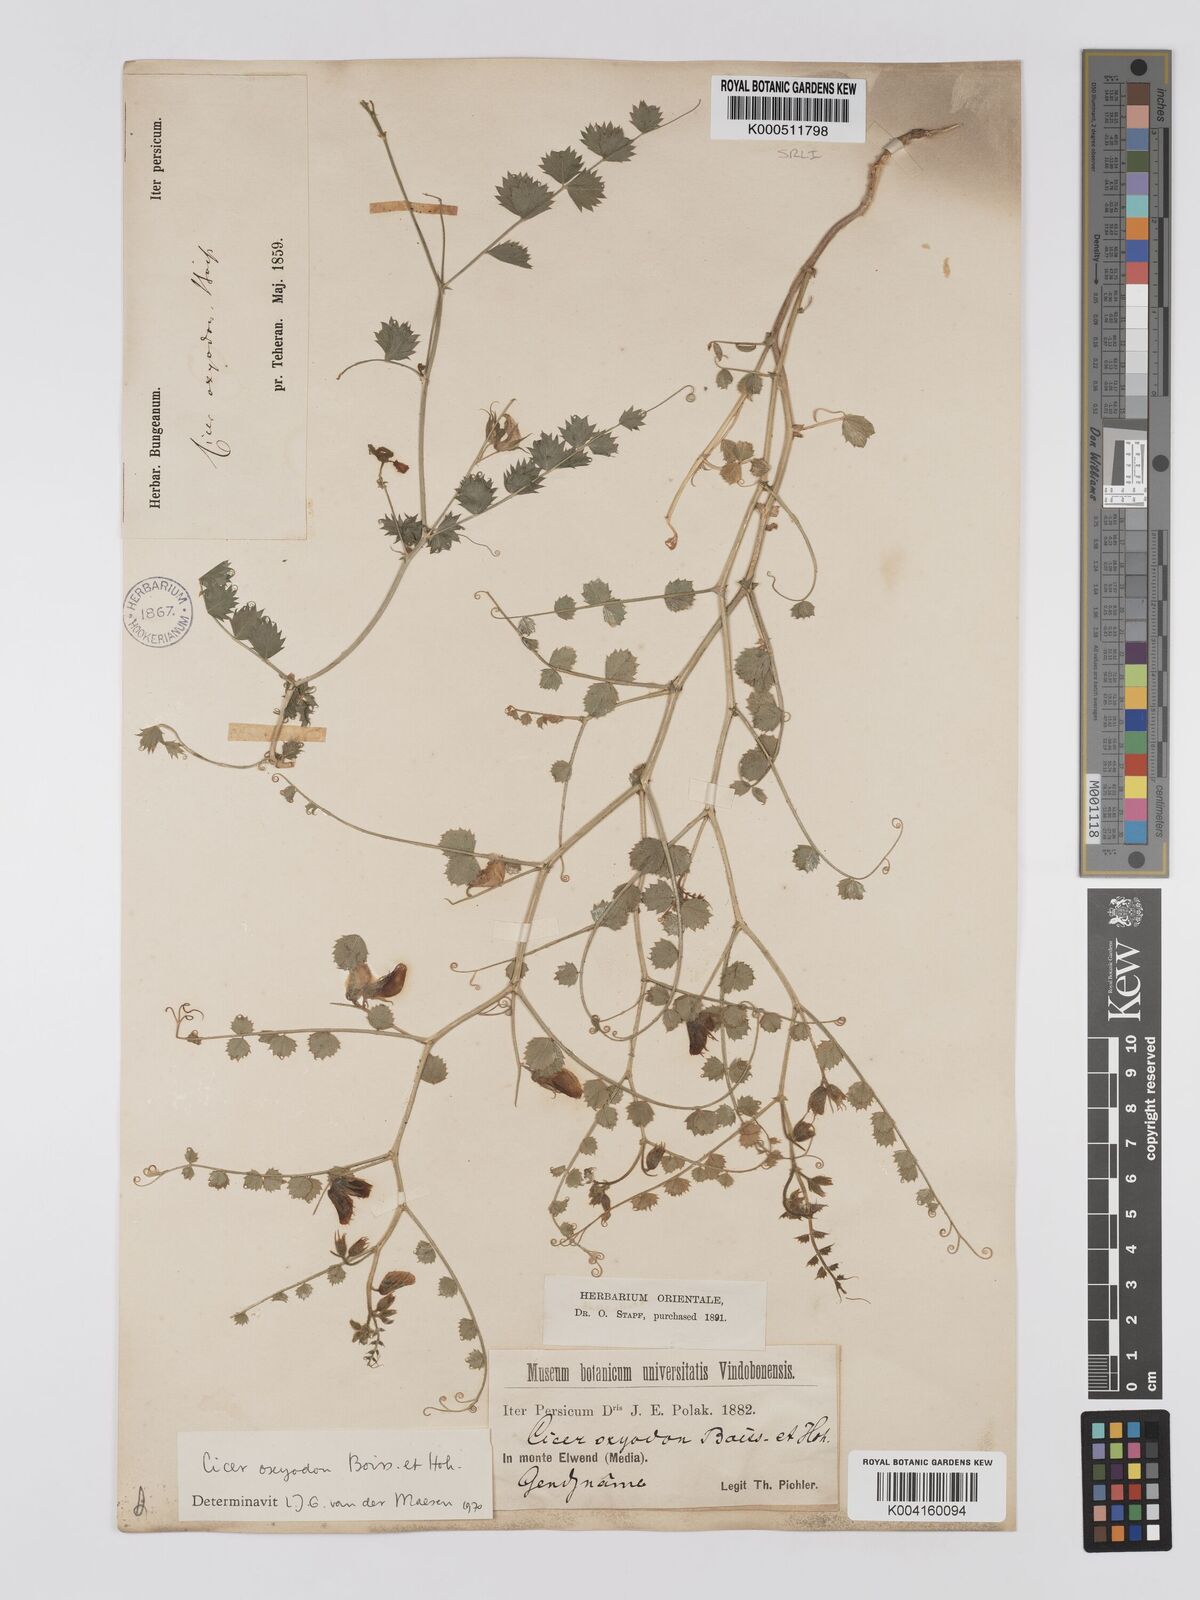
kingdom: Plantae
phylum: Tracheophyta
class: Magnoliopsida
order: Fabales
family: Fabaceae
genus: Cicer
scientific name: Cicer oxyodon
